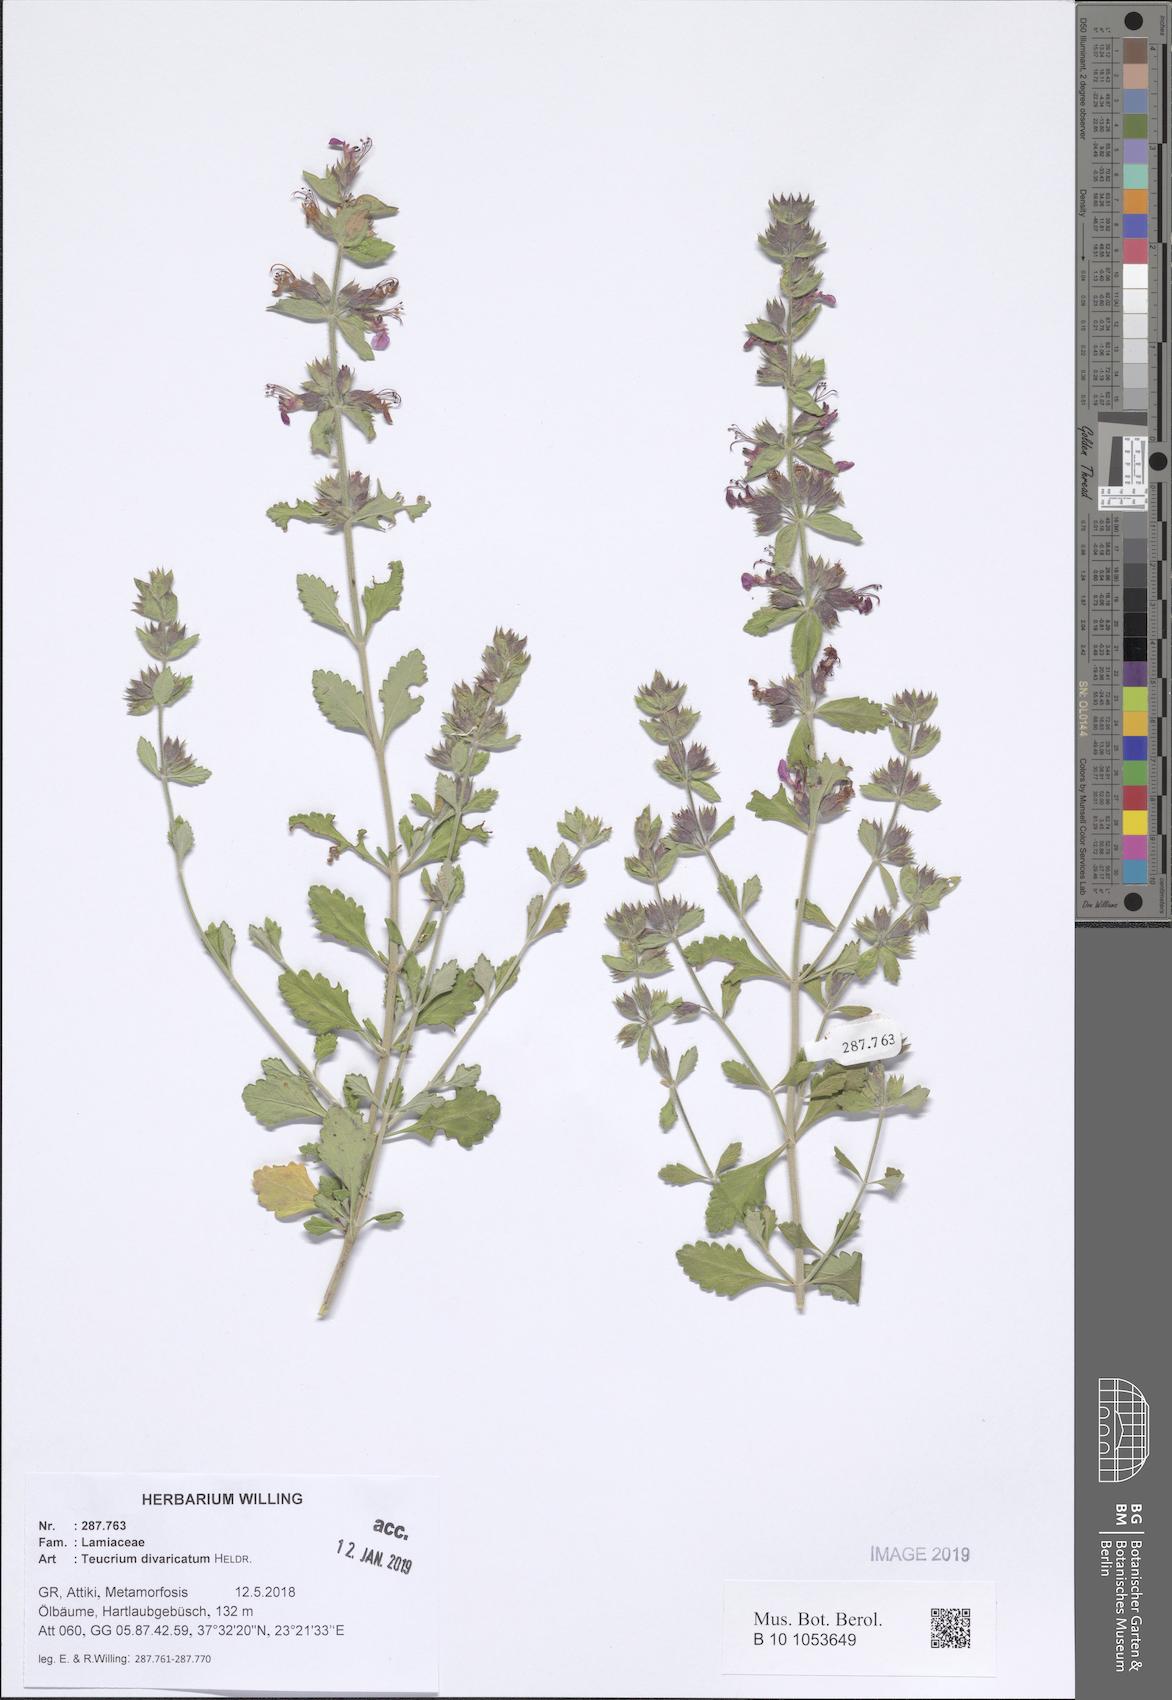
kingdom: Plantae
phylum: Tracheophyta
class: Magnoliopsida
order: Lamiales
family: Lamiaceae
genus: Teucrium
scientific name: Teucrium divaricatum
